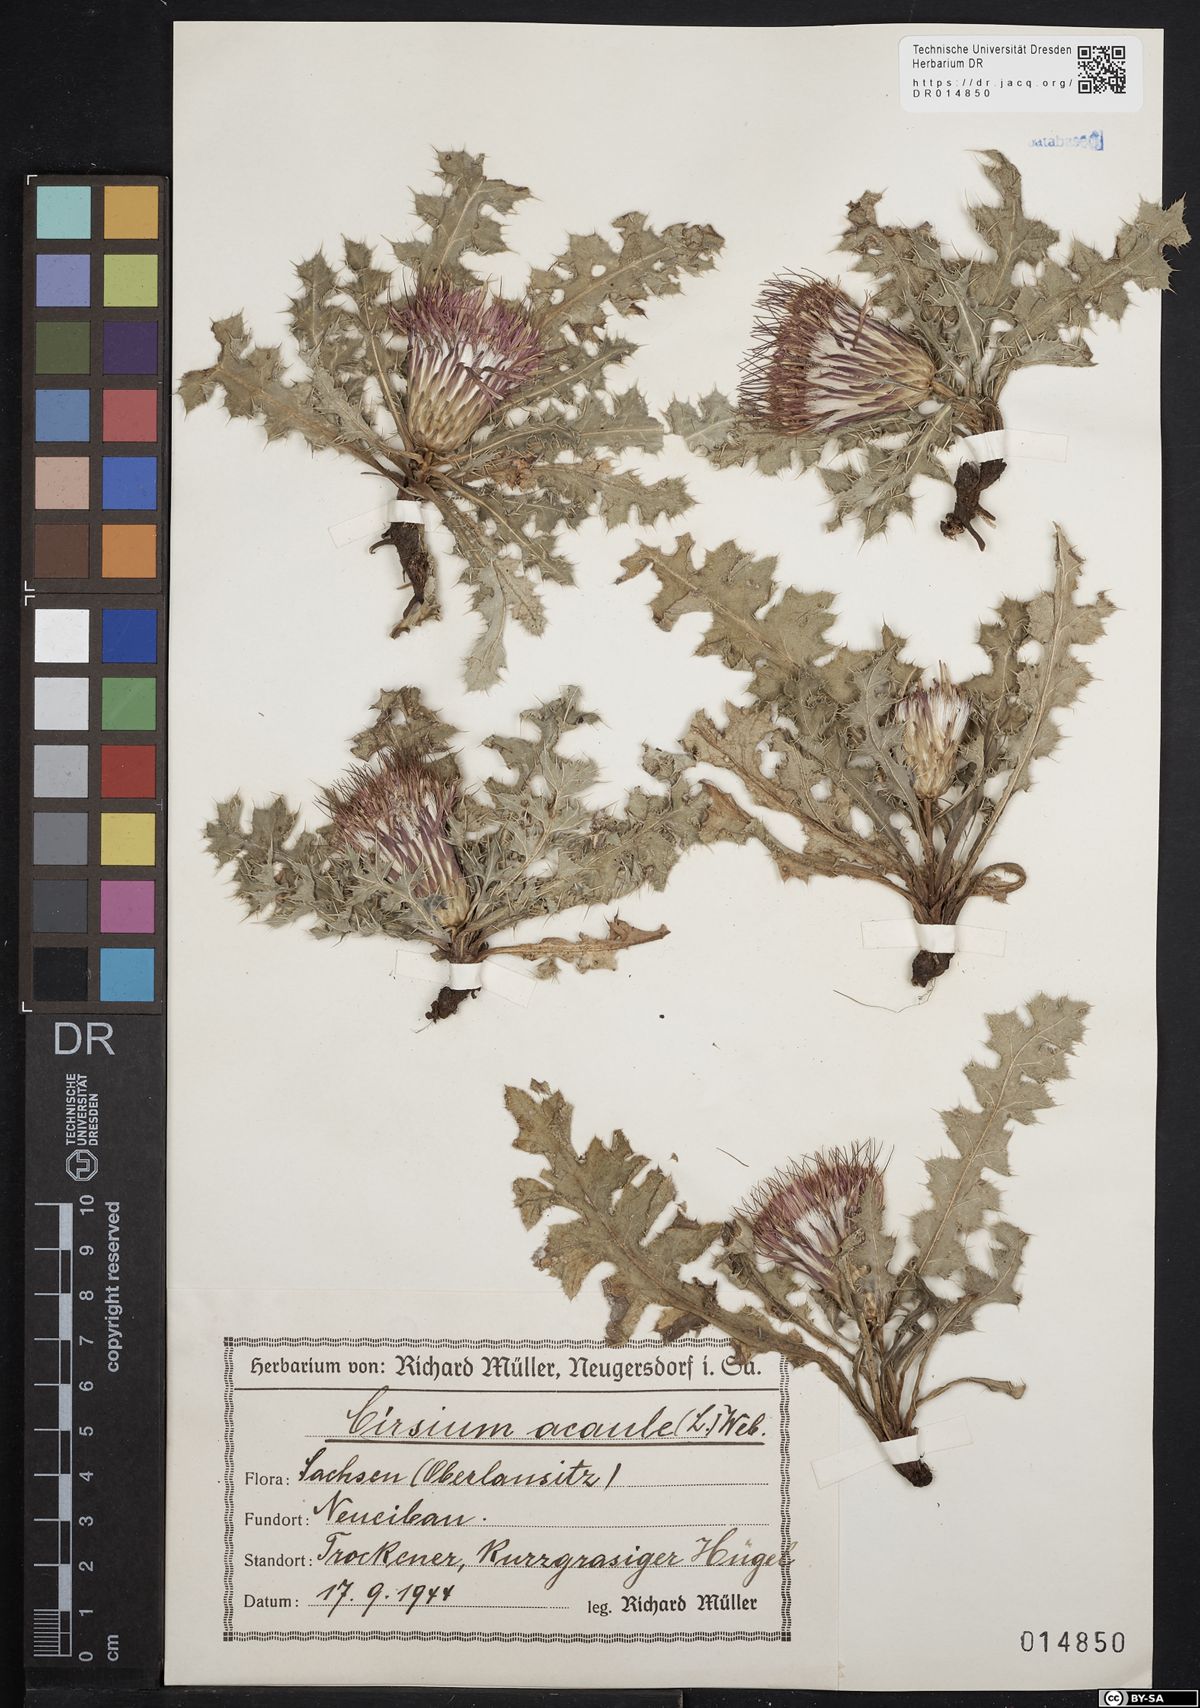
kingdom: Plantae
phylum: Tracheophyta
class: Magnoliopsida
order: Asterales
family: Asteraceae
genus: Cirsium
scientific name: Cirsium acaule
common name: Dwarf thistle
